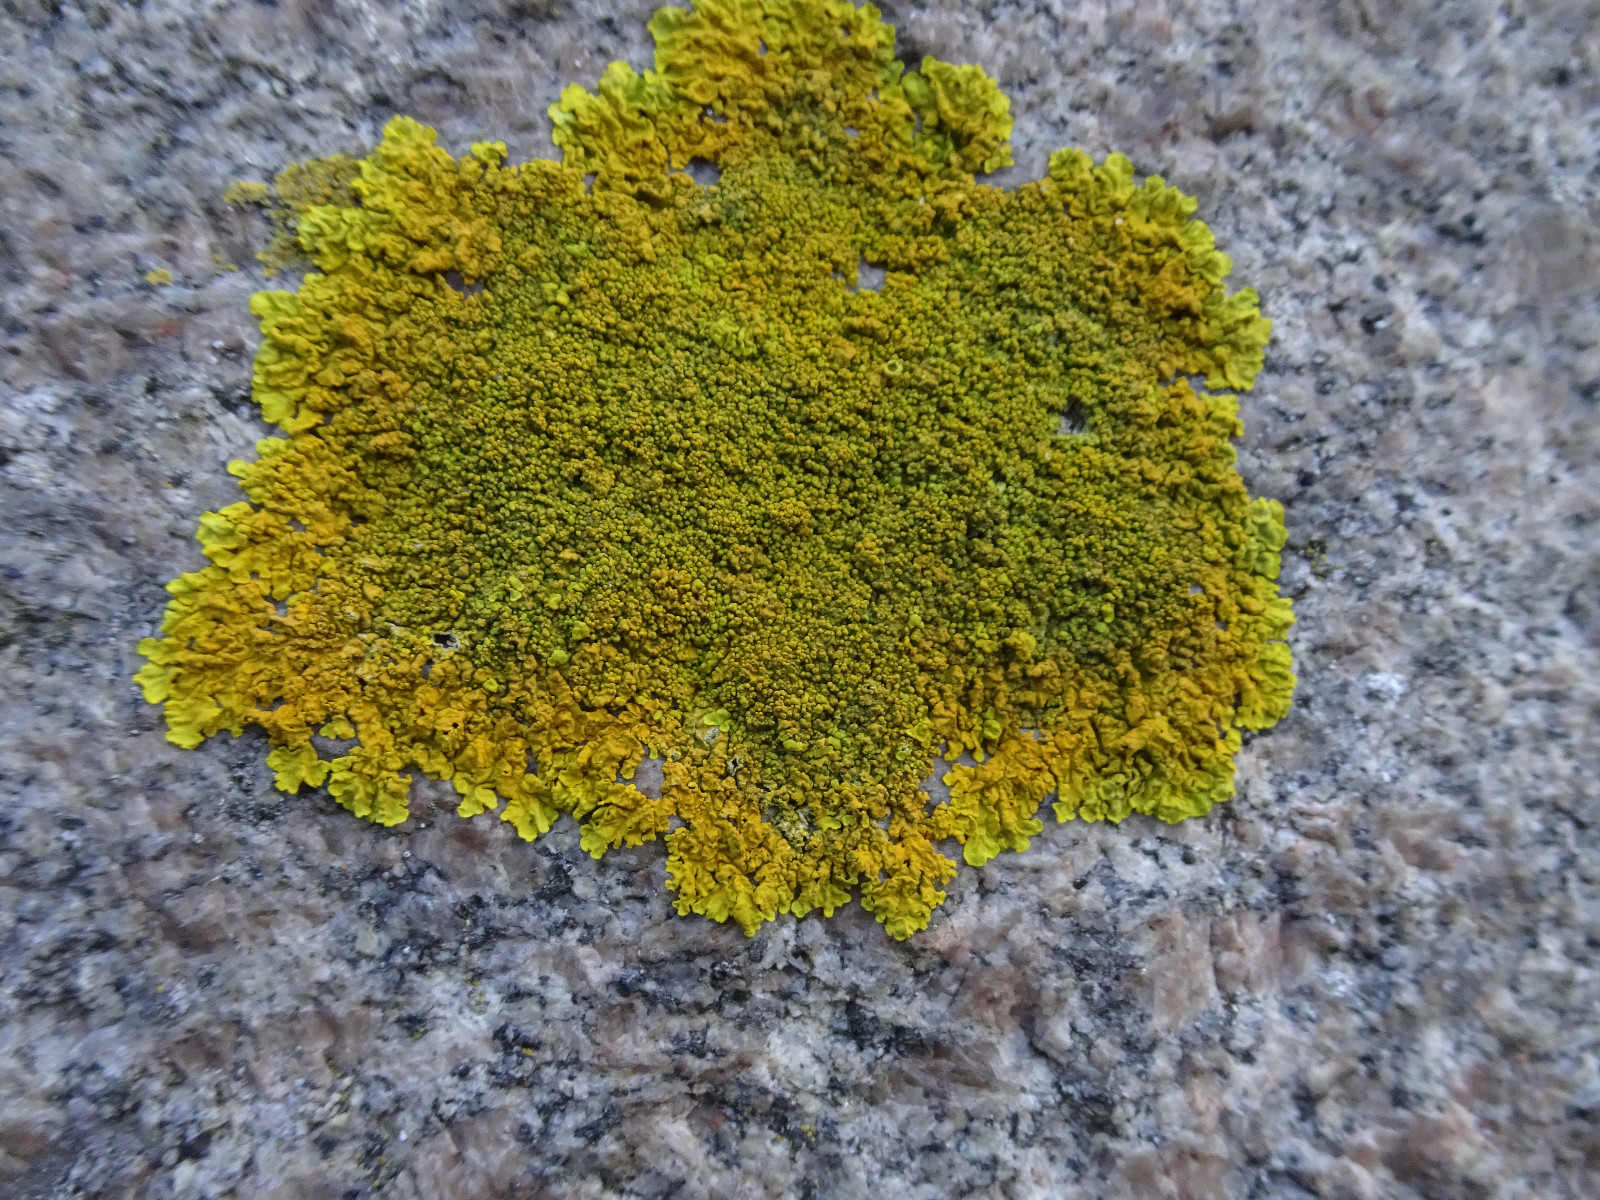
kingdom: Fungi
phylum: Ascomycota
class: Lecanoromycetes
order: Teloschistales
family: Teloschistaceae
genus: Xanthoria
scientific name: Xanthoria calcicola
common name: vortet væggelav
